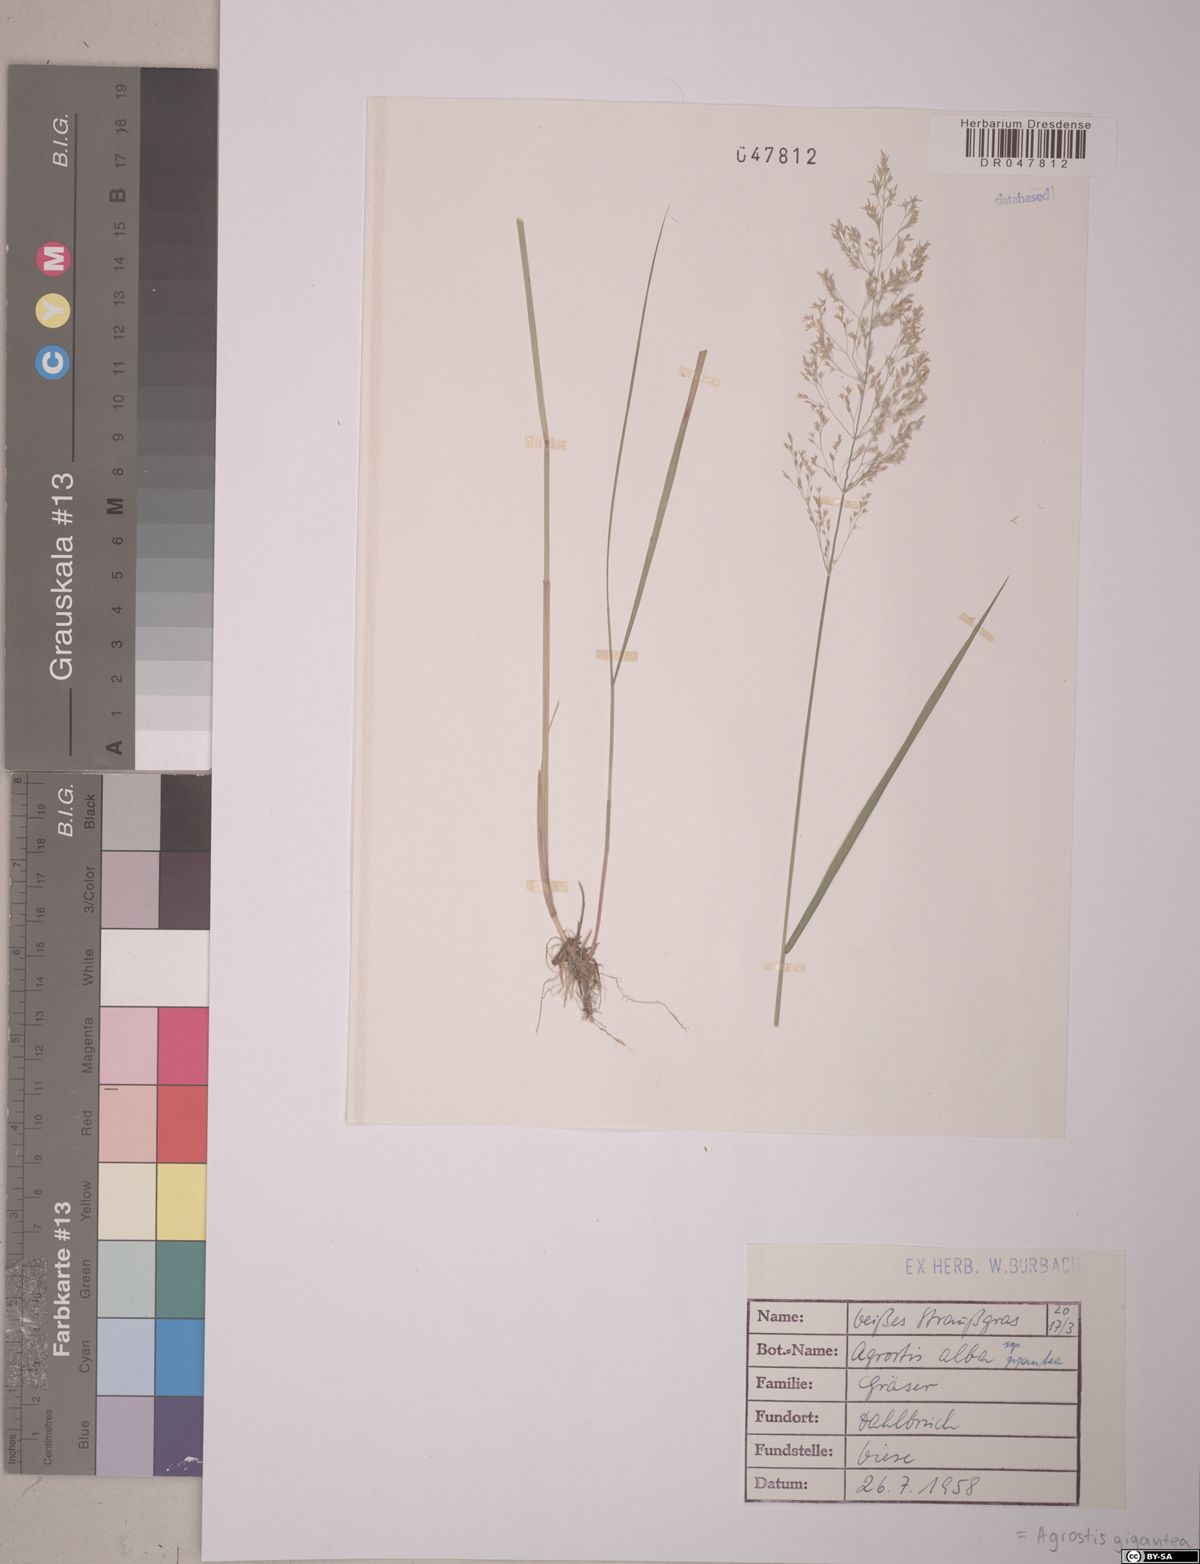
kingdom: Plantae
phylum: Tracheophyta
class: Liliopsida
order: Poales
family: Poaceae
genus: Agrostis
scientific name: Agrostis gigantea
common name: Black bent
